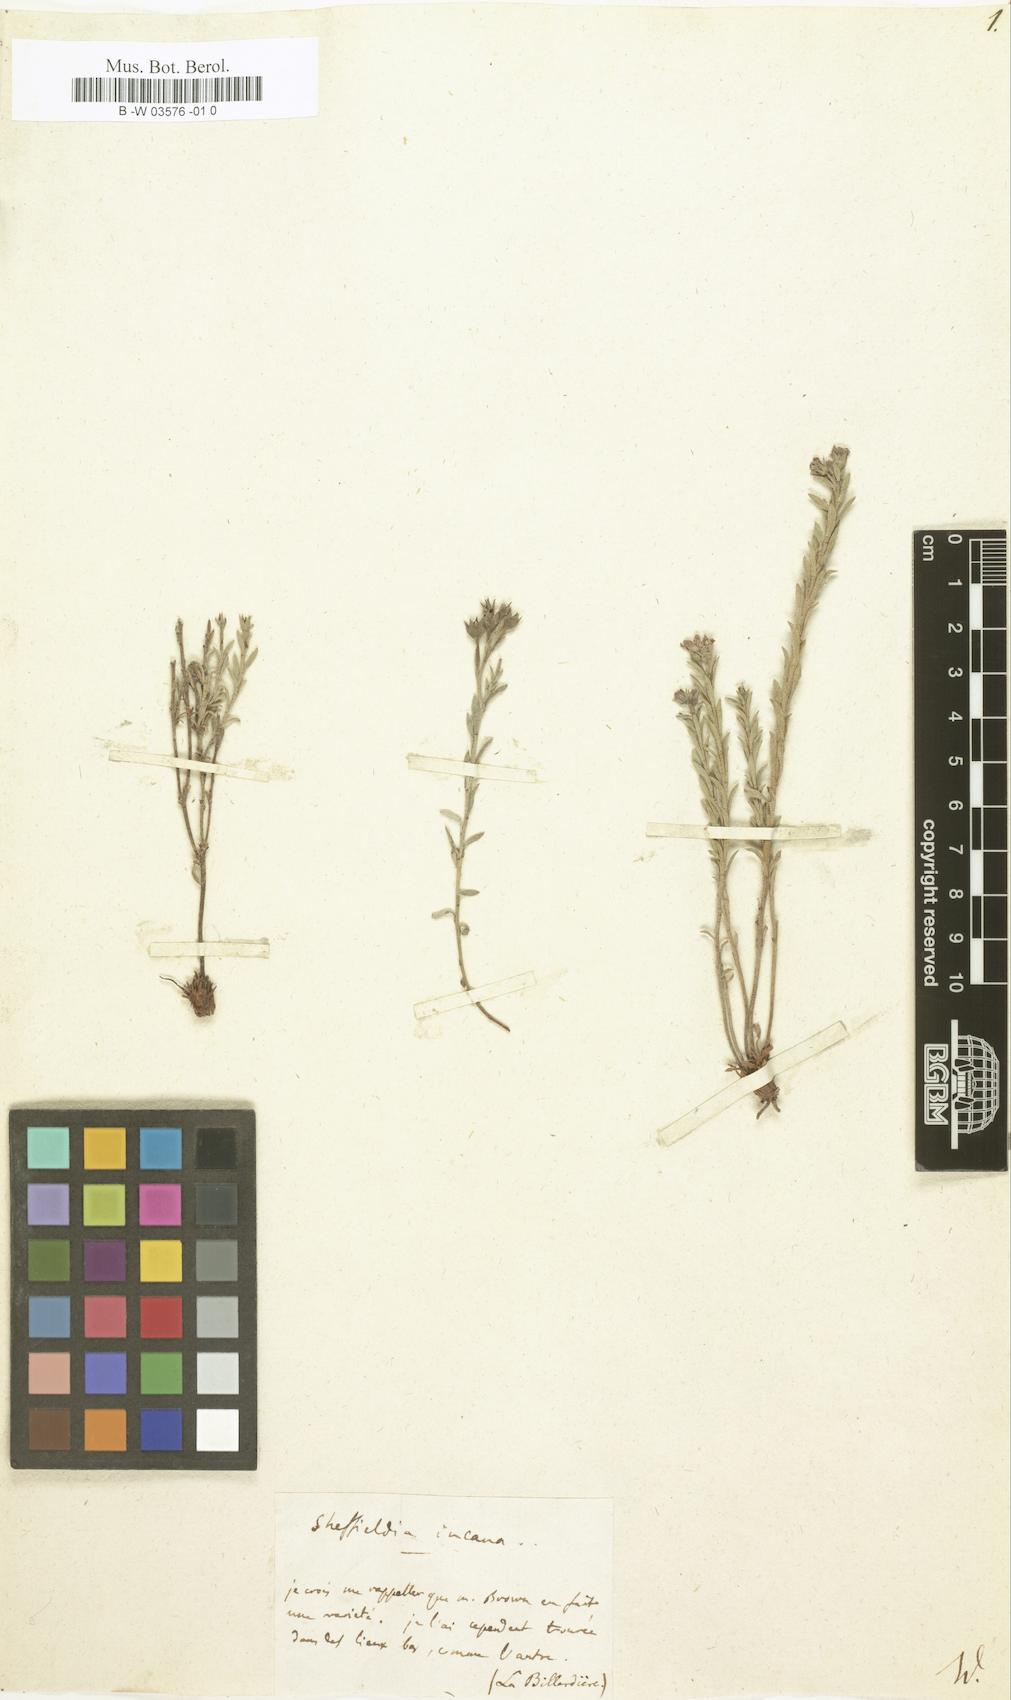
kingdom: Plantae
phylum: Tracheophyta
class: Magnoliopsida
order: Ericales
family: Primulaceae
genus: Samolus
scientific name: Samolus repens
